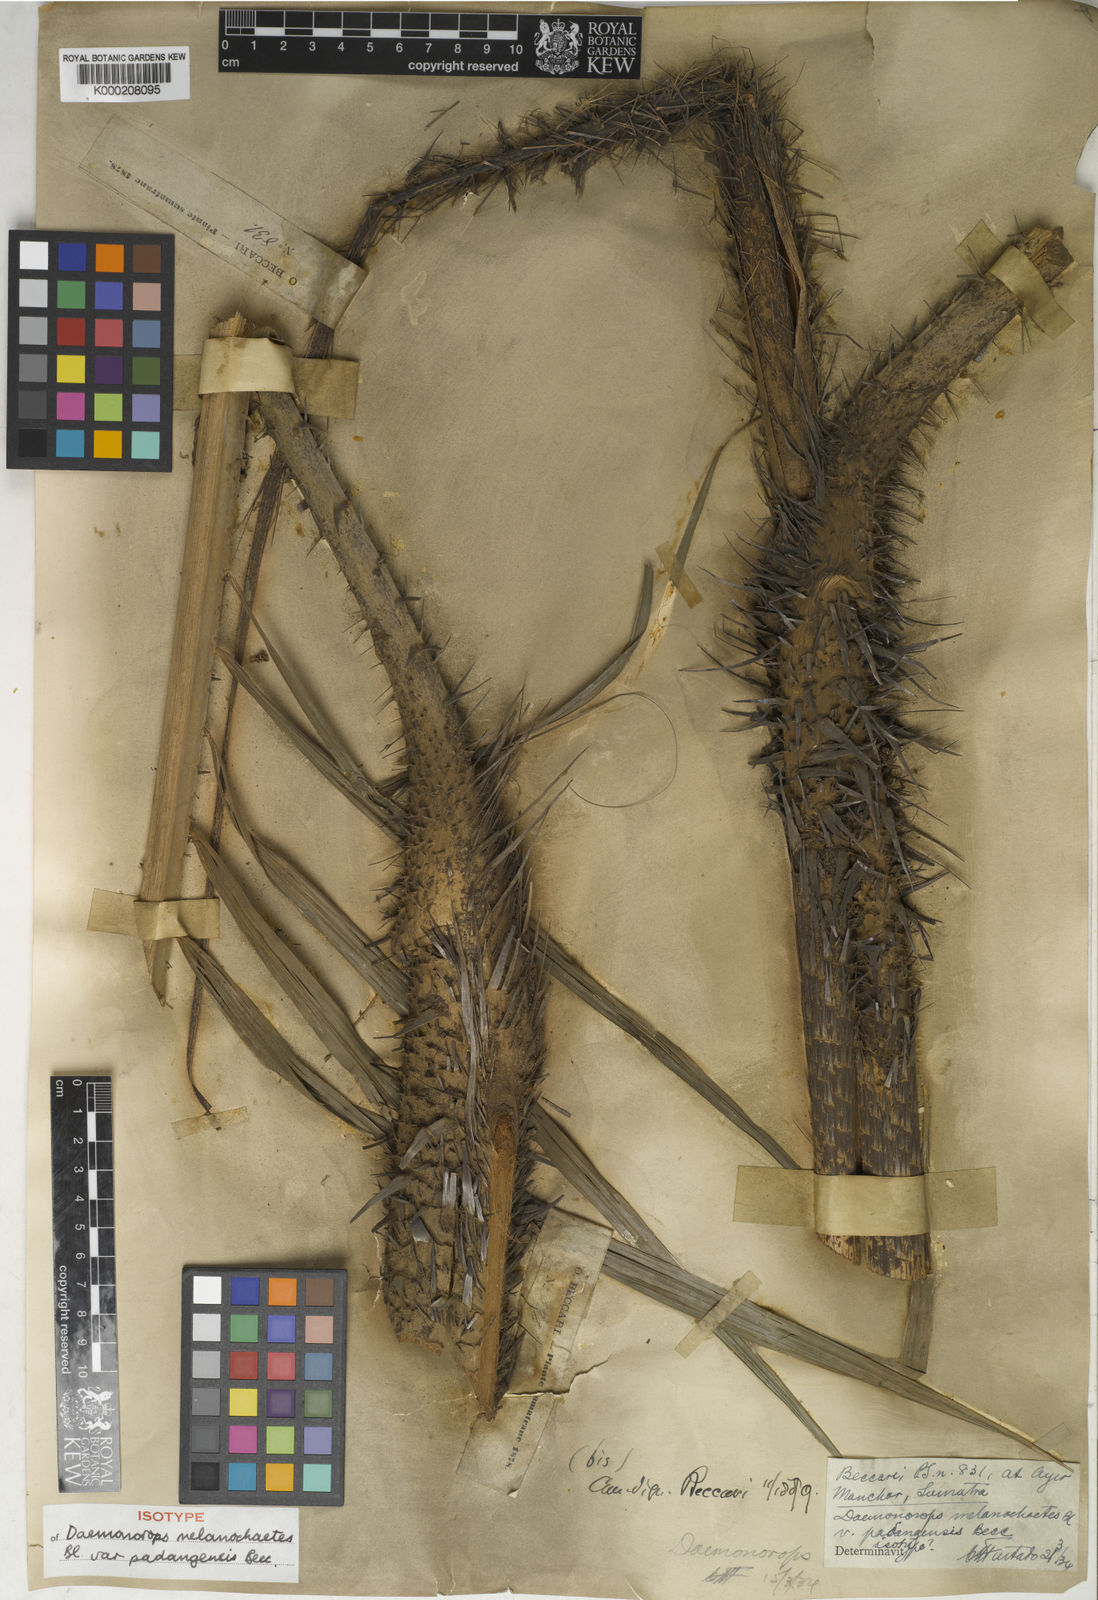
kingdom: Plantae
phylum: Tracheophyta
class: Liliopsida
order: Arecales
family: Arecaceae
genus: Calamus
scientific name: Calamus melanochaetes
